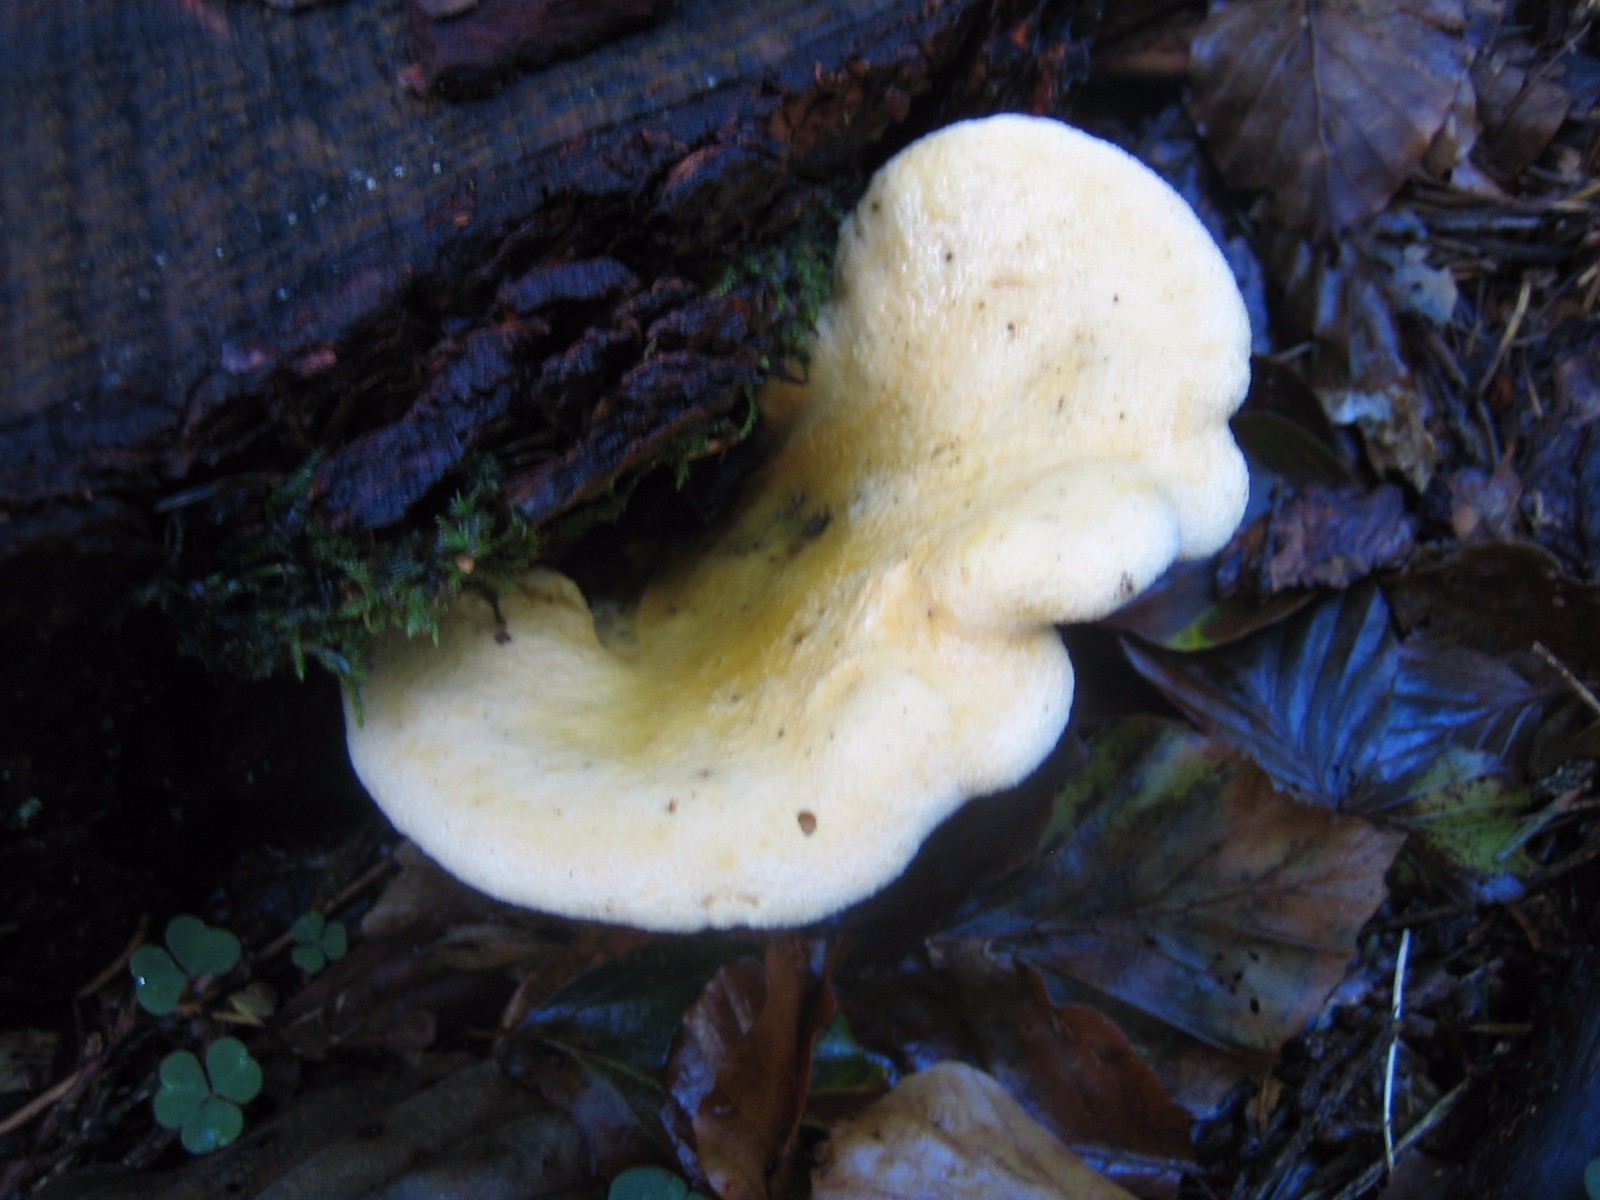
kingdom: Fungi
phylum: Basidiomycota
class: Agaricomycetes
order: Boletales
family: Hygrophoropsidaceae
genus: Hygrophoropsis
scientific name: Hygrophoropsis
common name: orangekantarel
